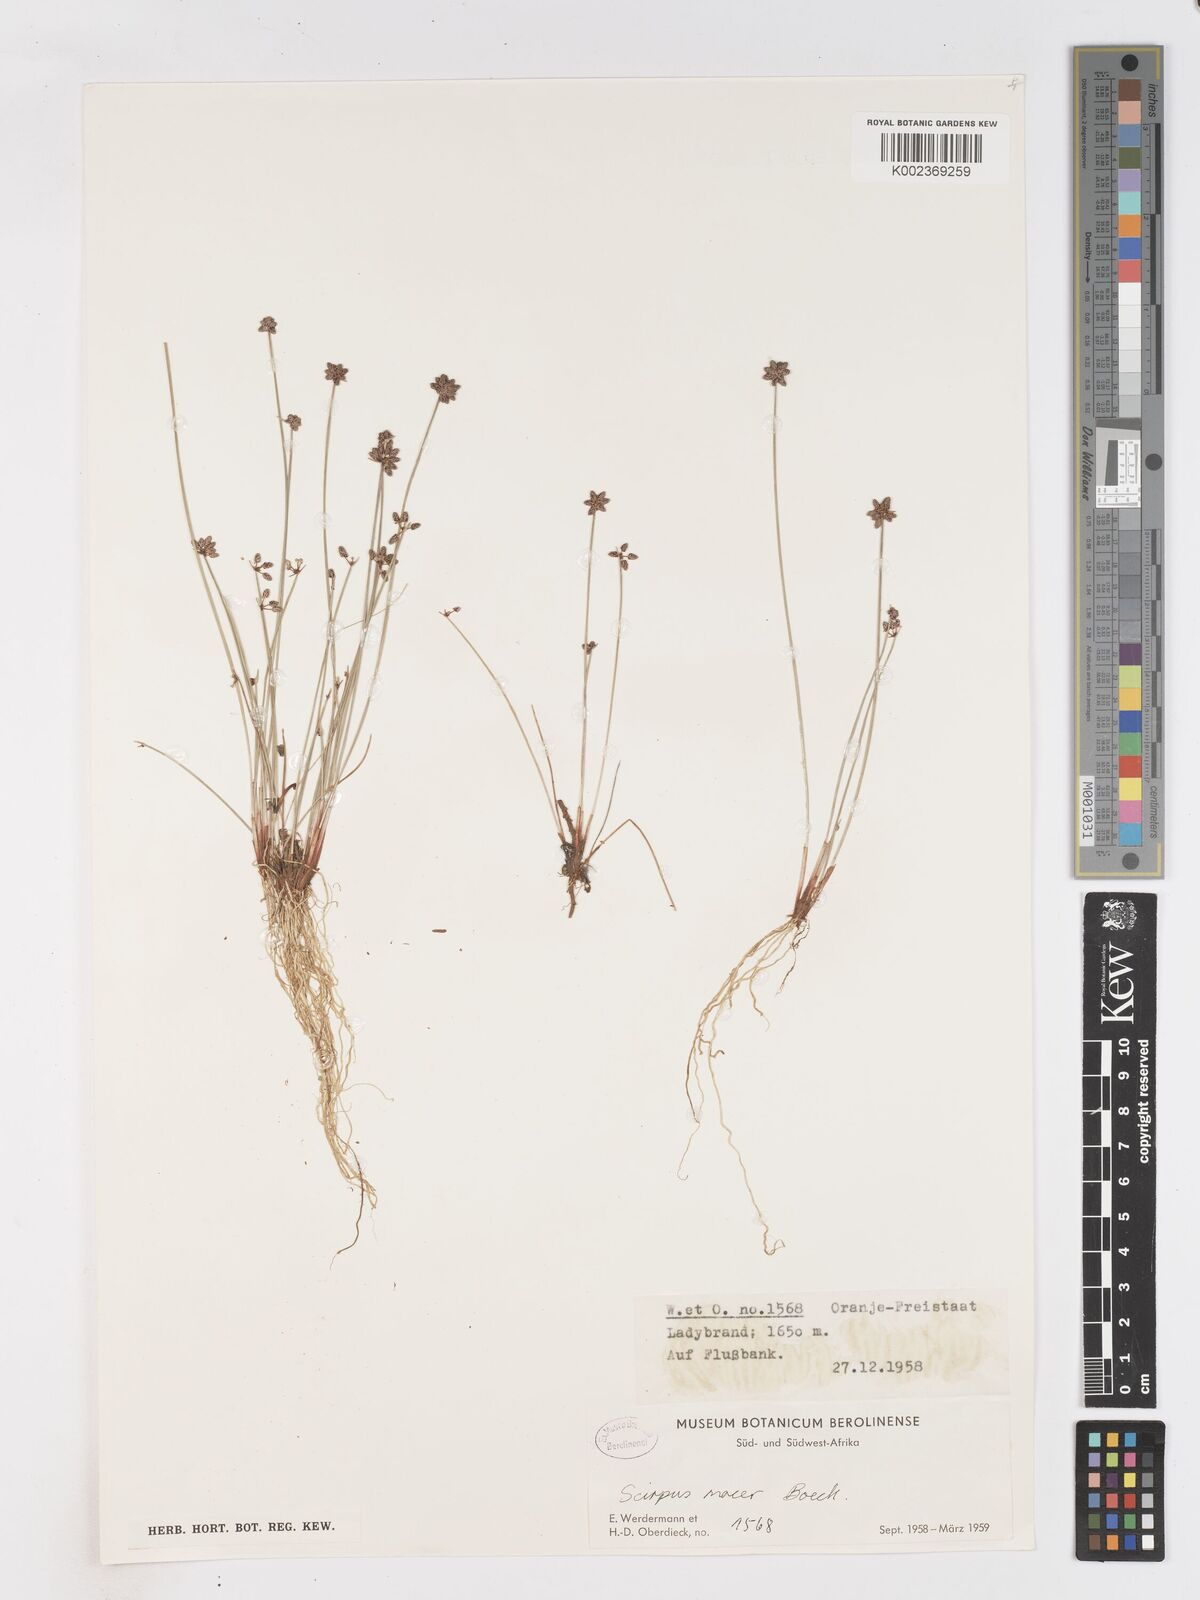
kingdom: Plantae
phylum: Tracheophyta
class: Liliopsida
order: Poales
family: Cyperaceae
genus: Isolepis
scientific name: Isolepis costata
